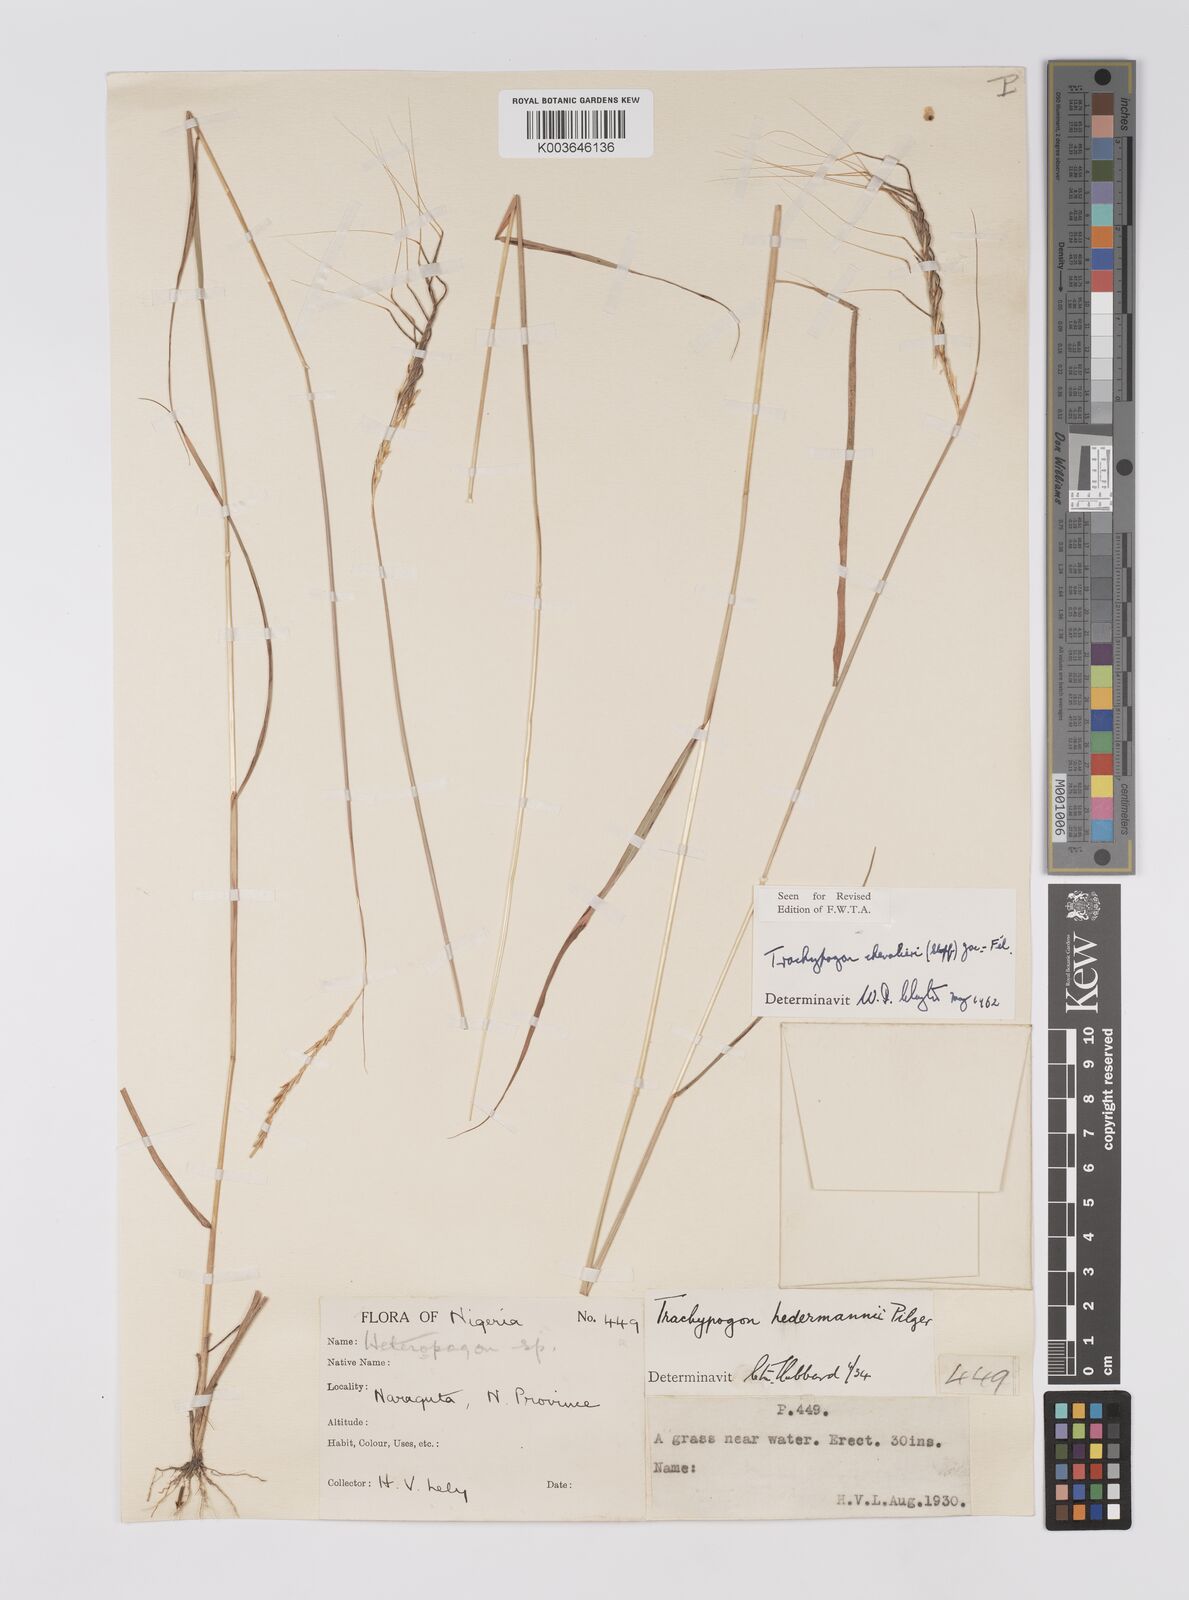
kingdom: Plantae
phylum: Tracheophyta
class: Liliopsida
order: Poales
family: Poaceae
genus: Trachypogon
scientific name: Trachypogon chevalieri
